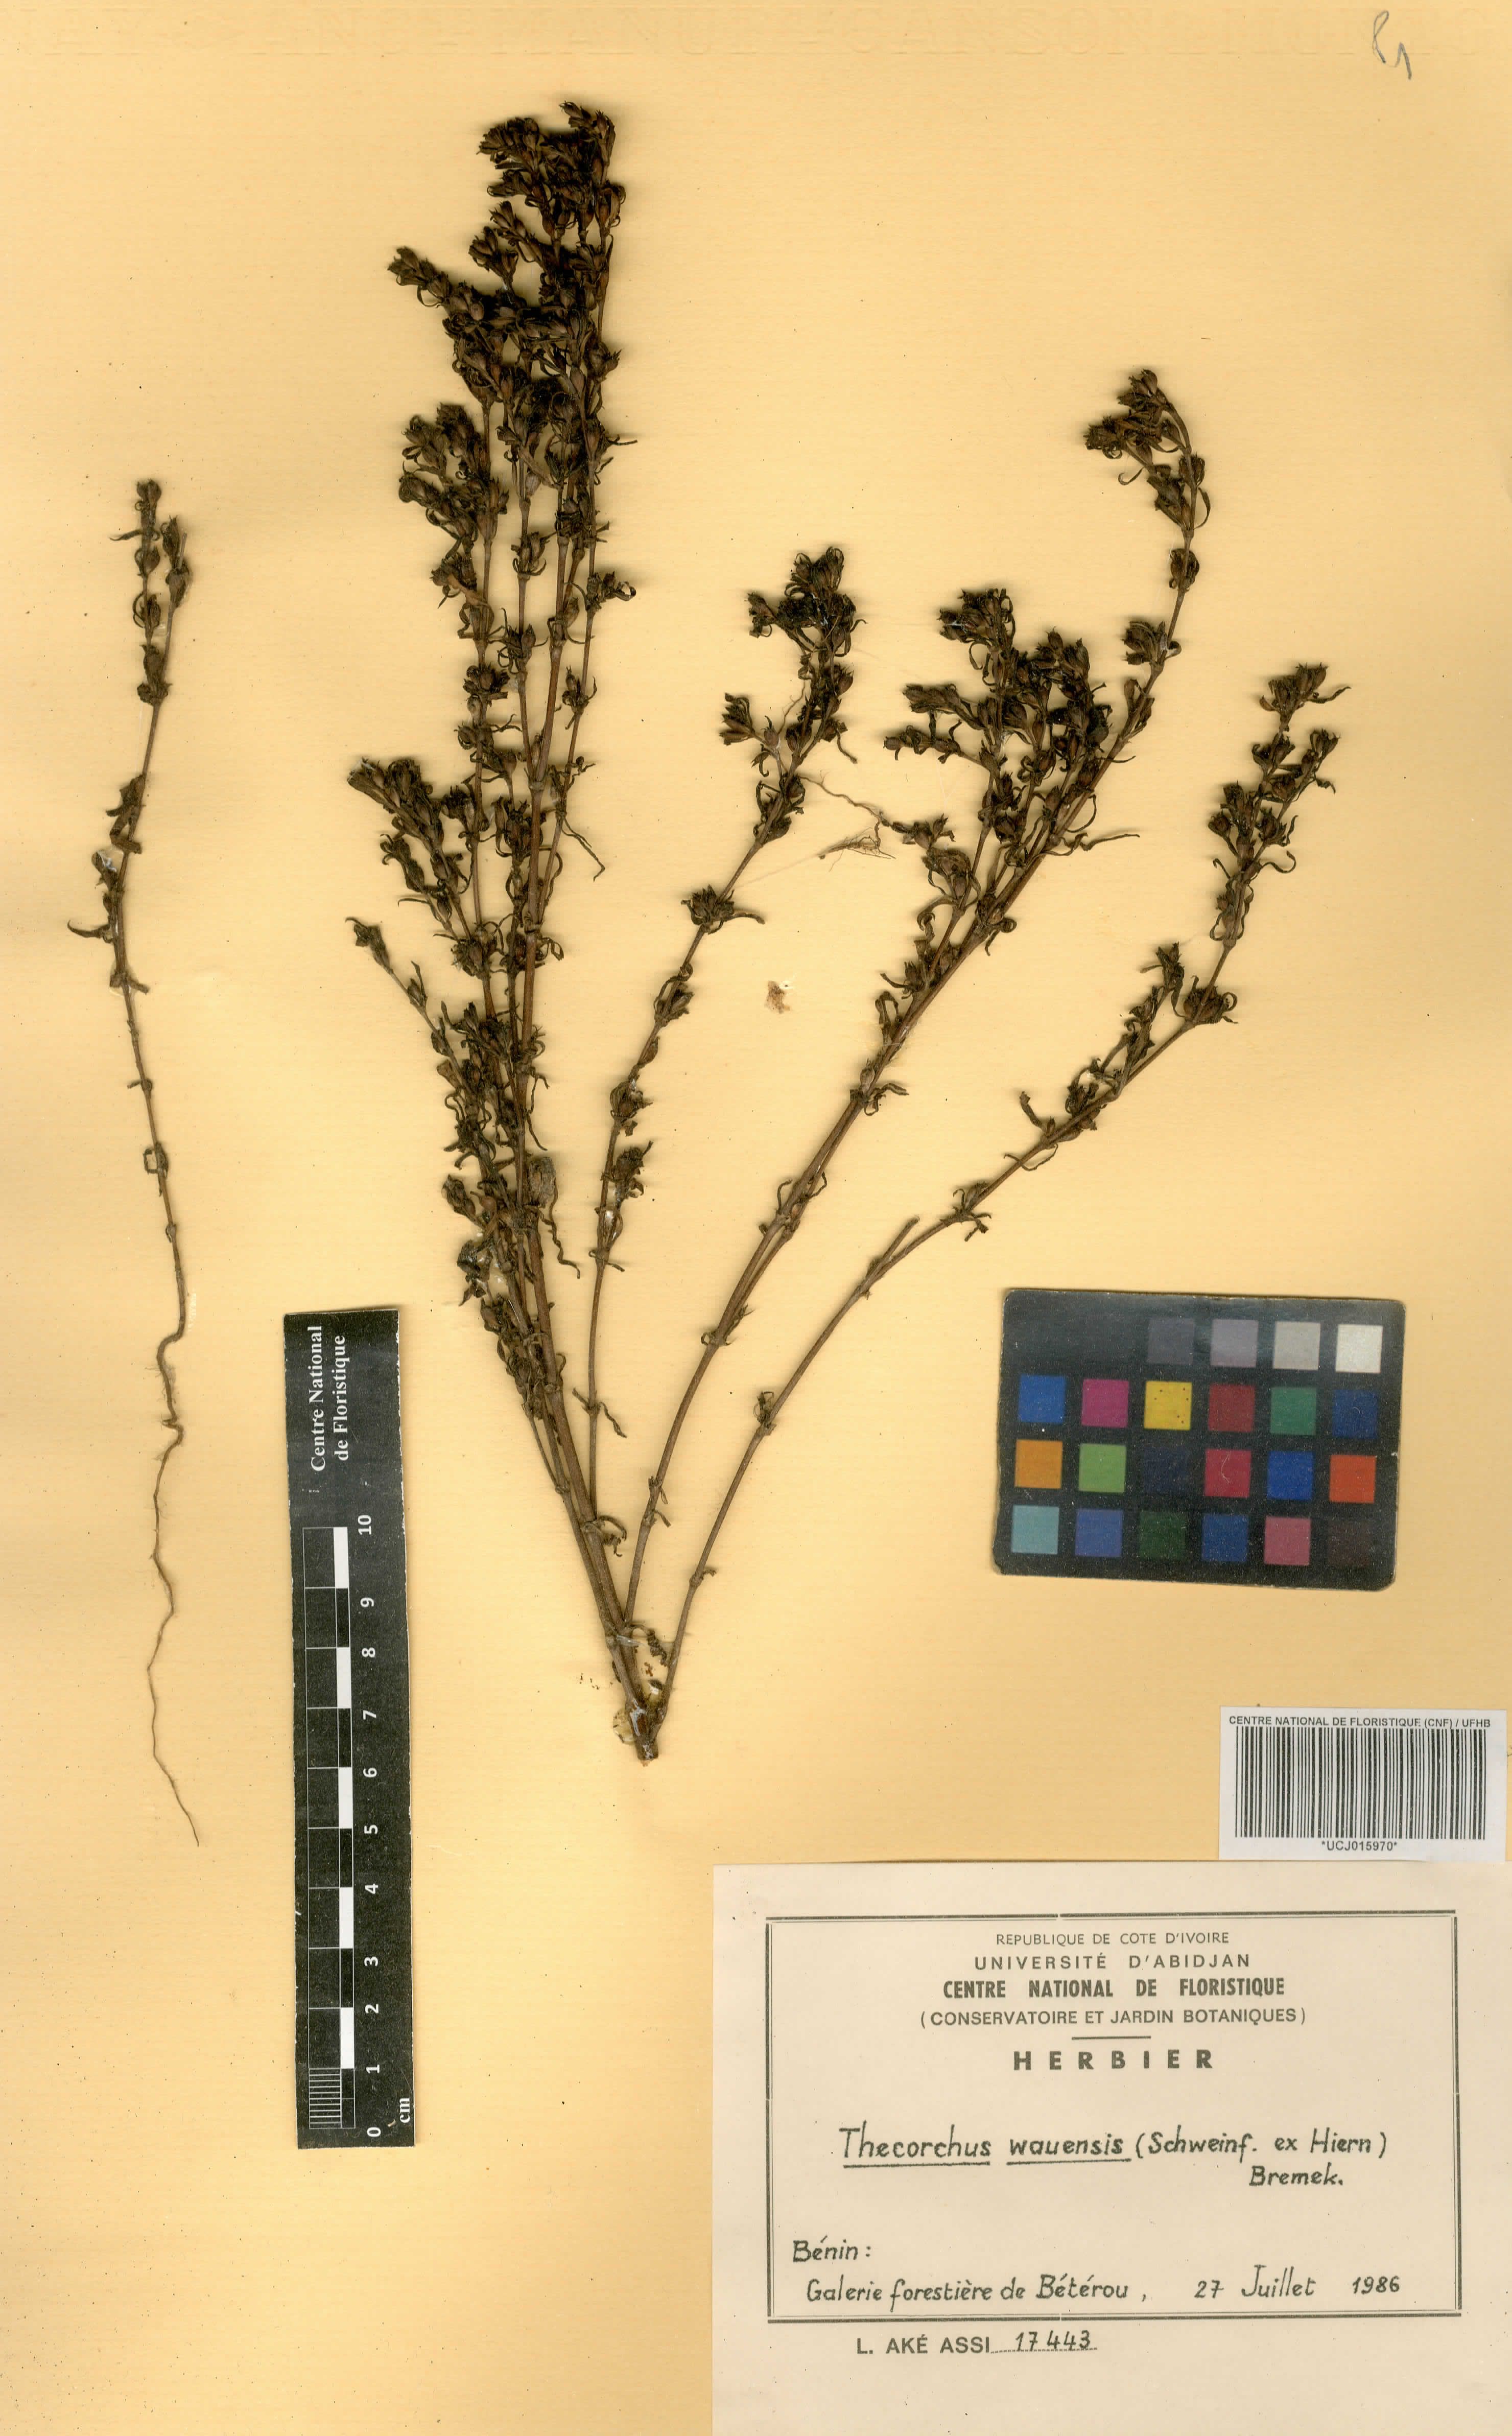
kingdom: Plantae
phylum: Tracheophyta
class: Magnoliopsida
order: Gentianales
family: Rubiaceae
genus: Oldenlandia
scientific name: Oldenlandia wauensis
